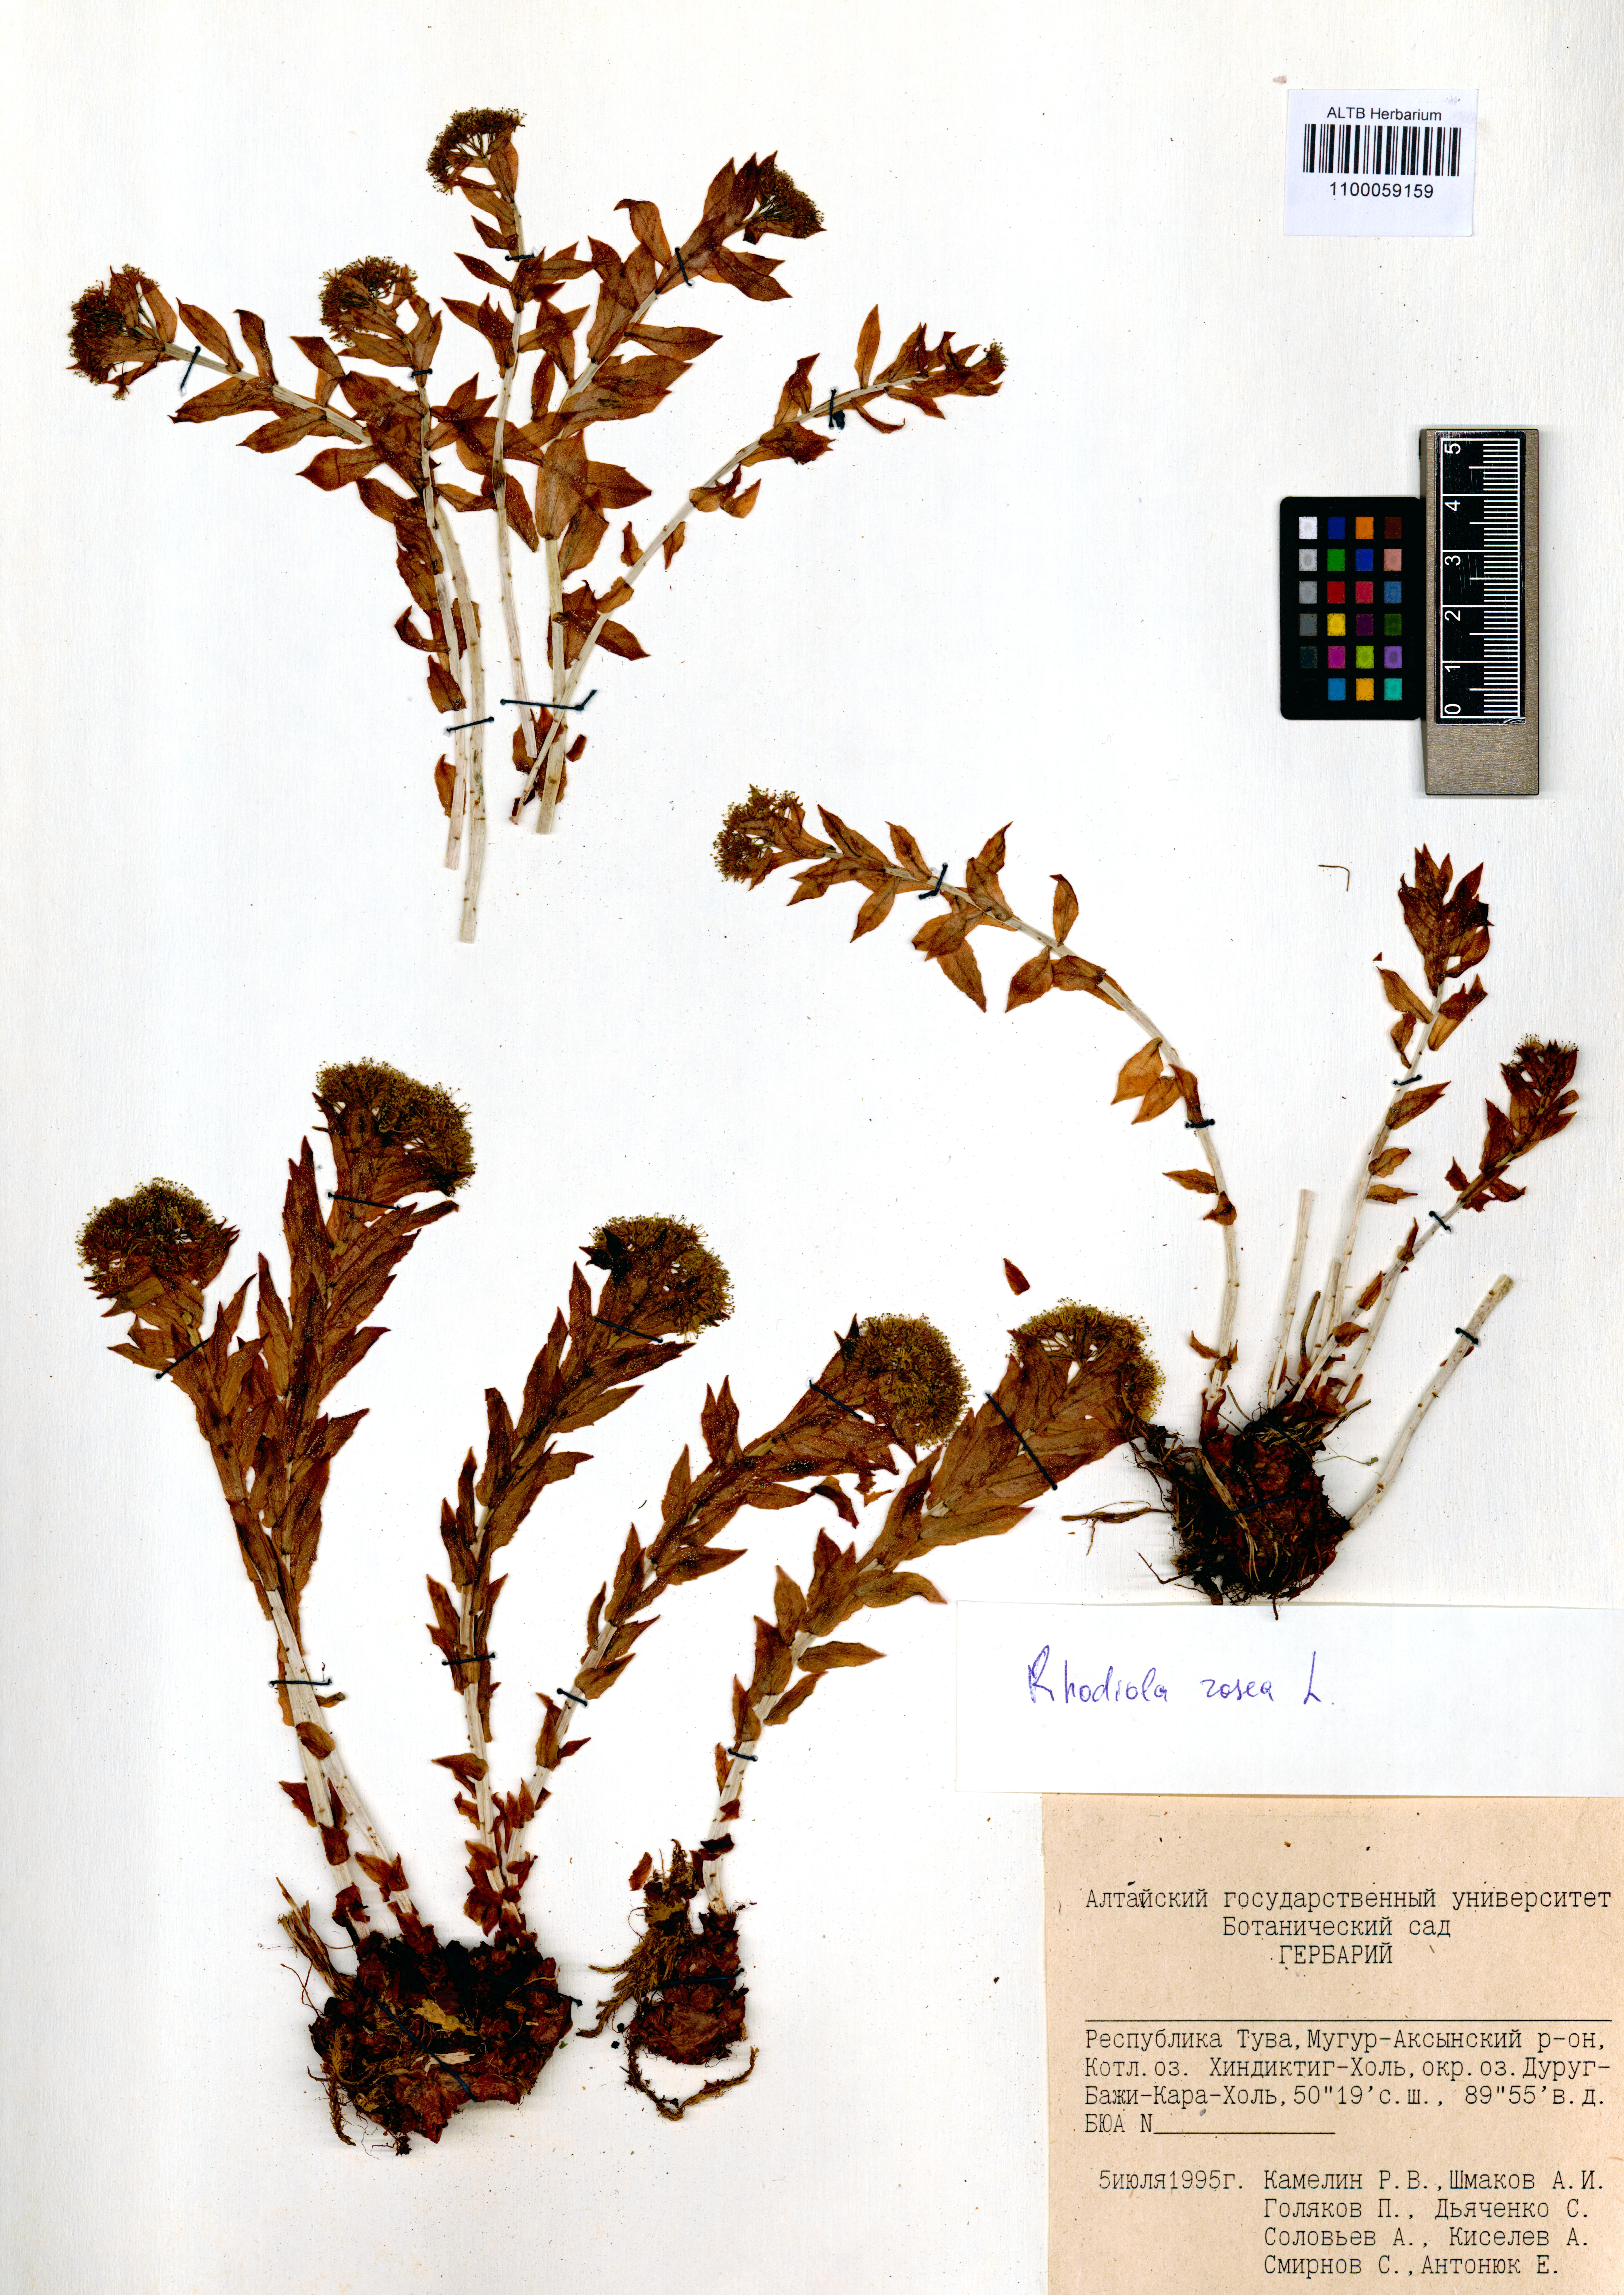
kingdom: Plantae
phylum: Tracheophyta
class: Magnoliopsida
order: Saxifragales
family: Crassulaceae
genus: Rhodiola
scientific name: Rhodiola rosea
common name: Roseroot
